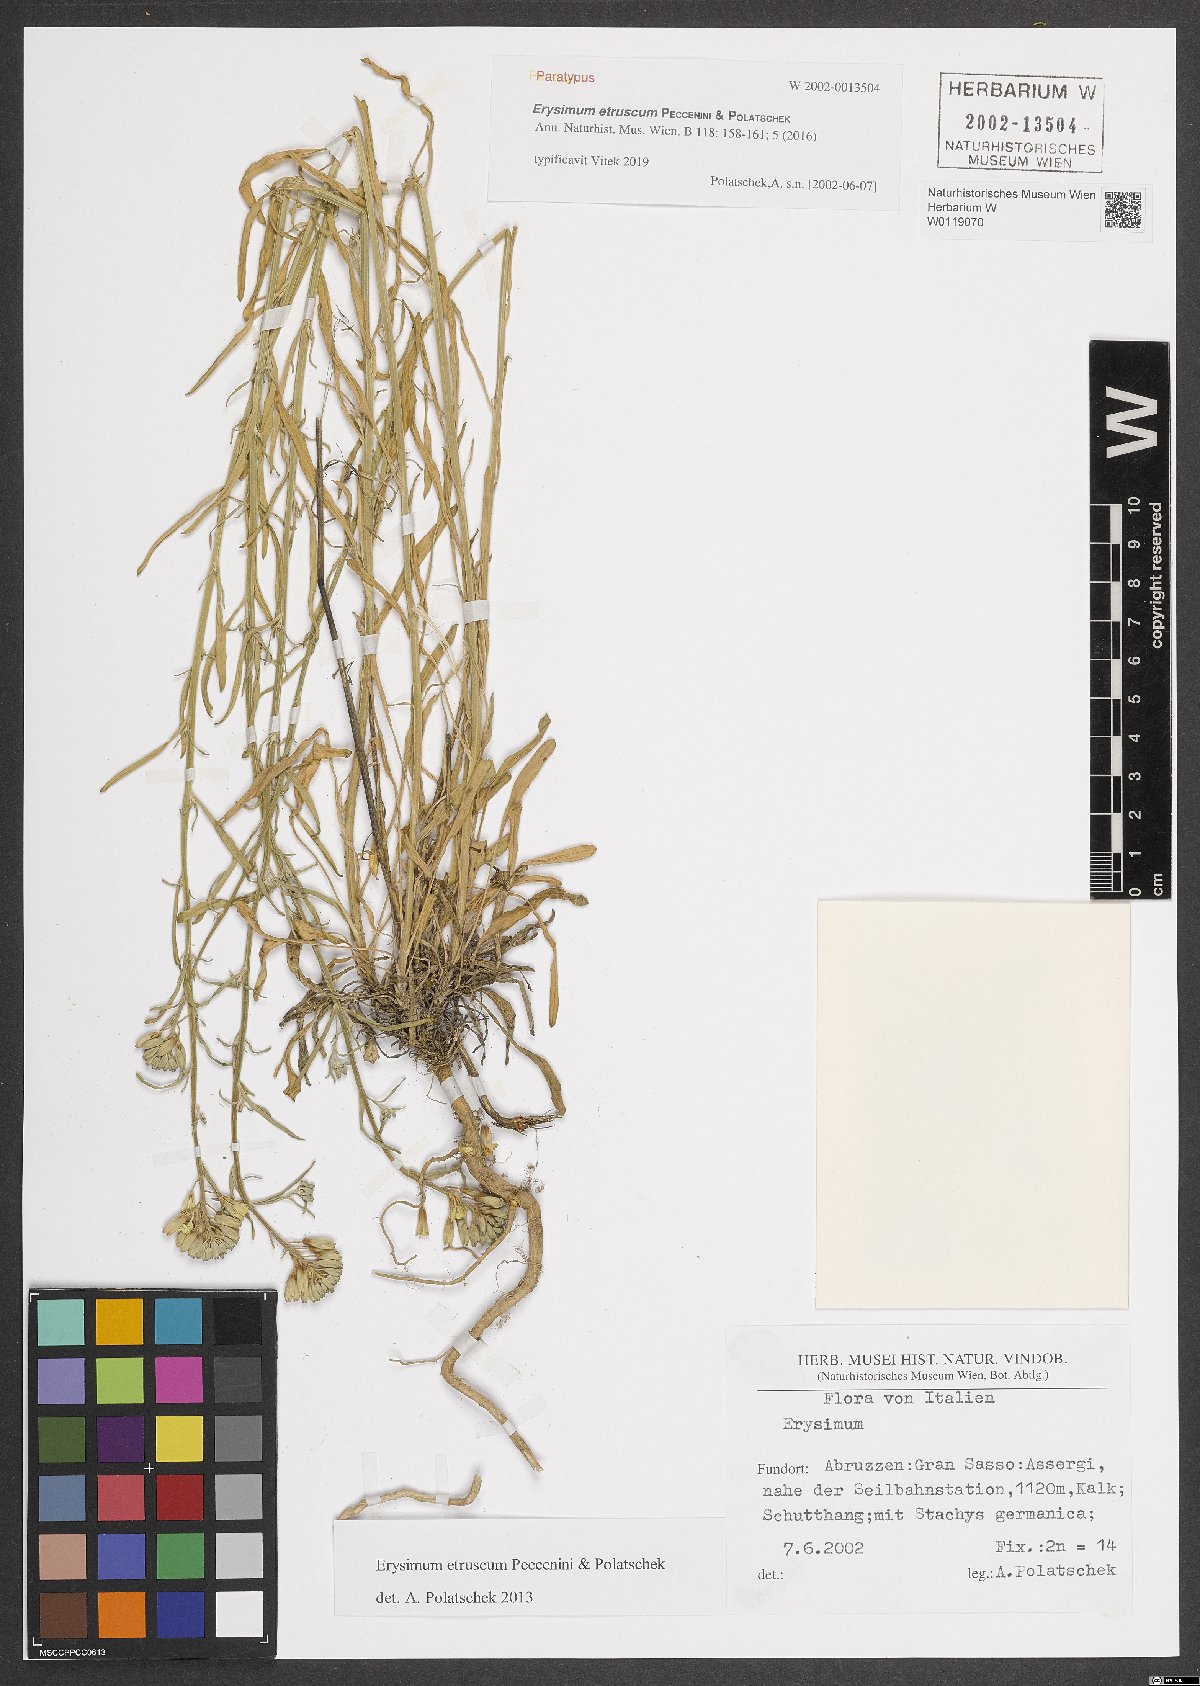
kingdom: Plantae
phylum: Tracheophyta
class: Magnoliopsida
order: Brassicales
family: Brassicaceae
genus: Erysimum
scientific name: Erysimum pseudorhaeticum
